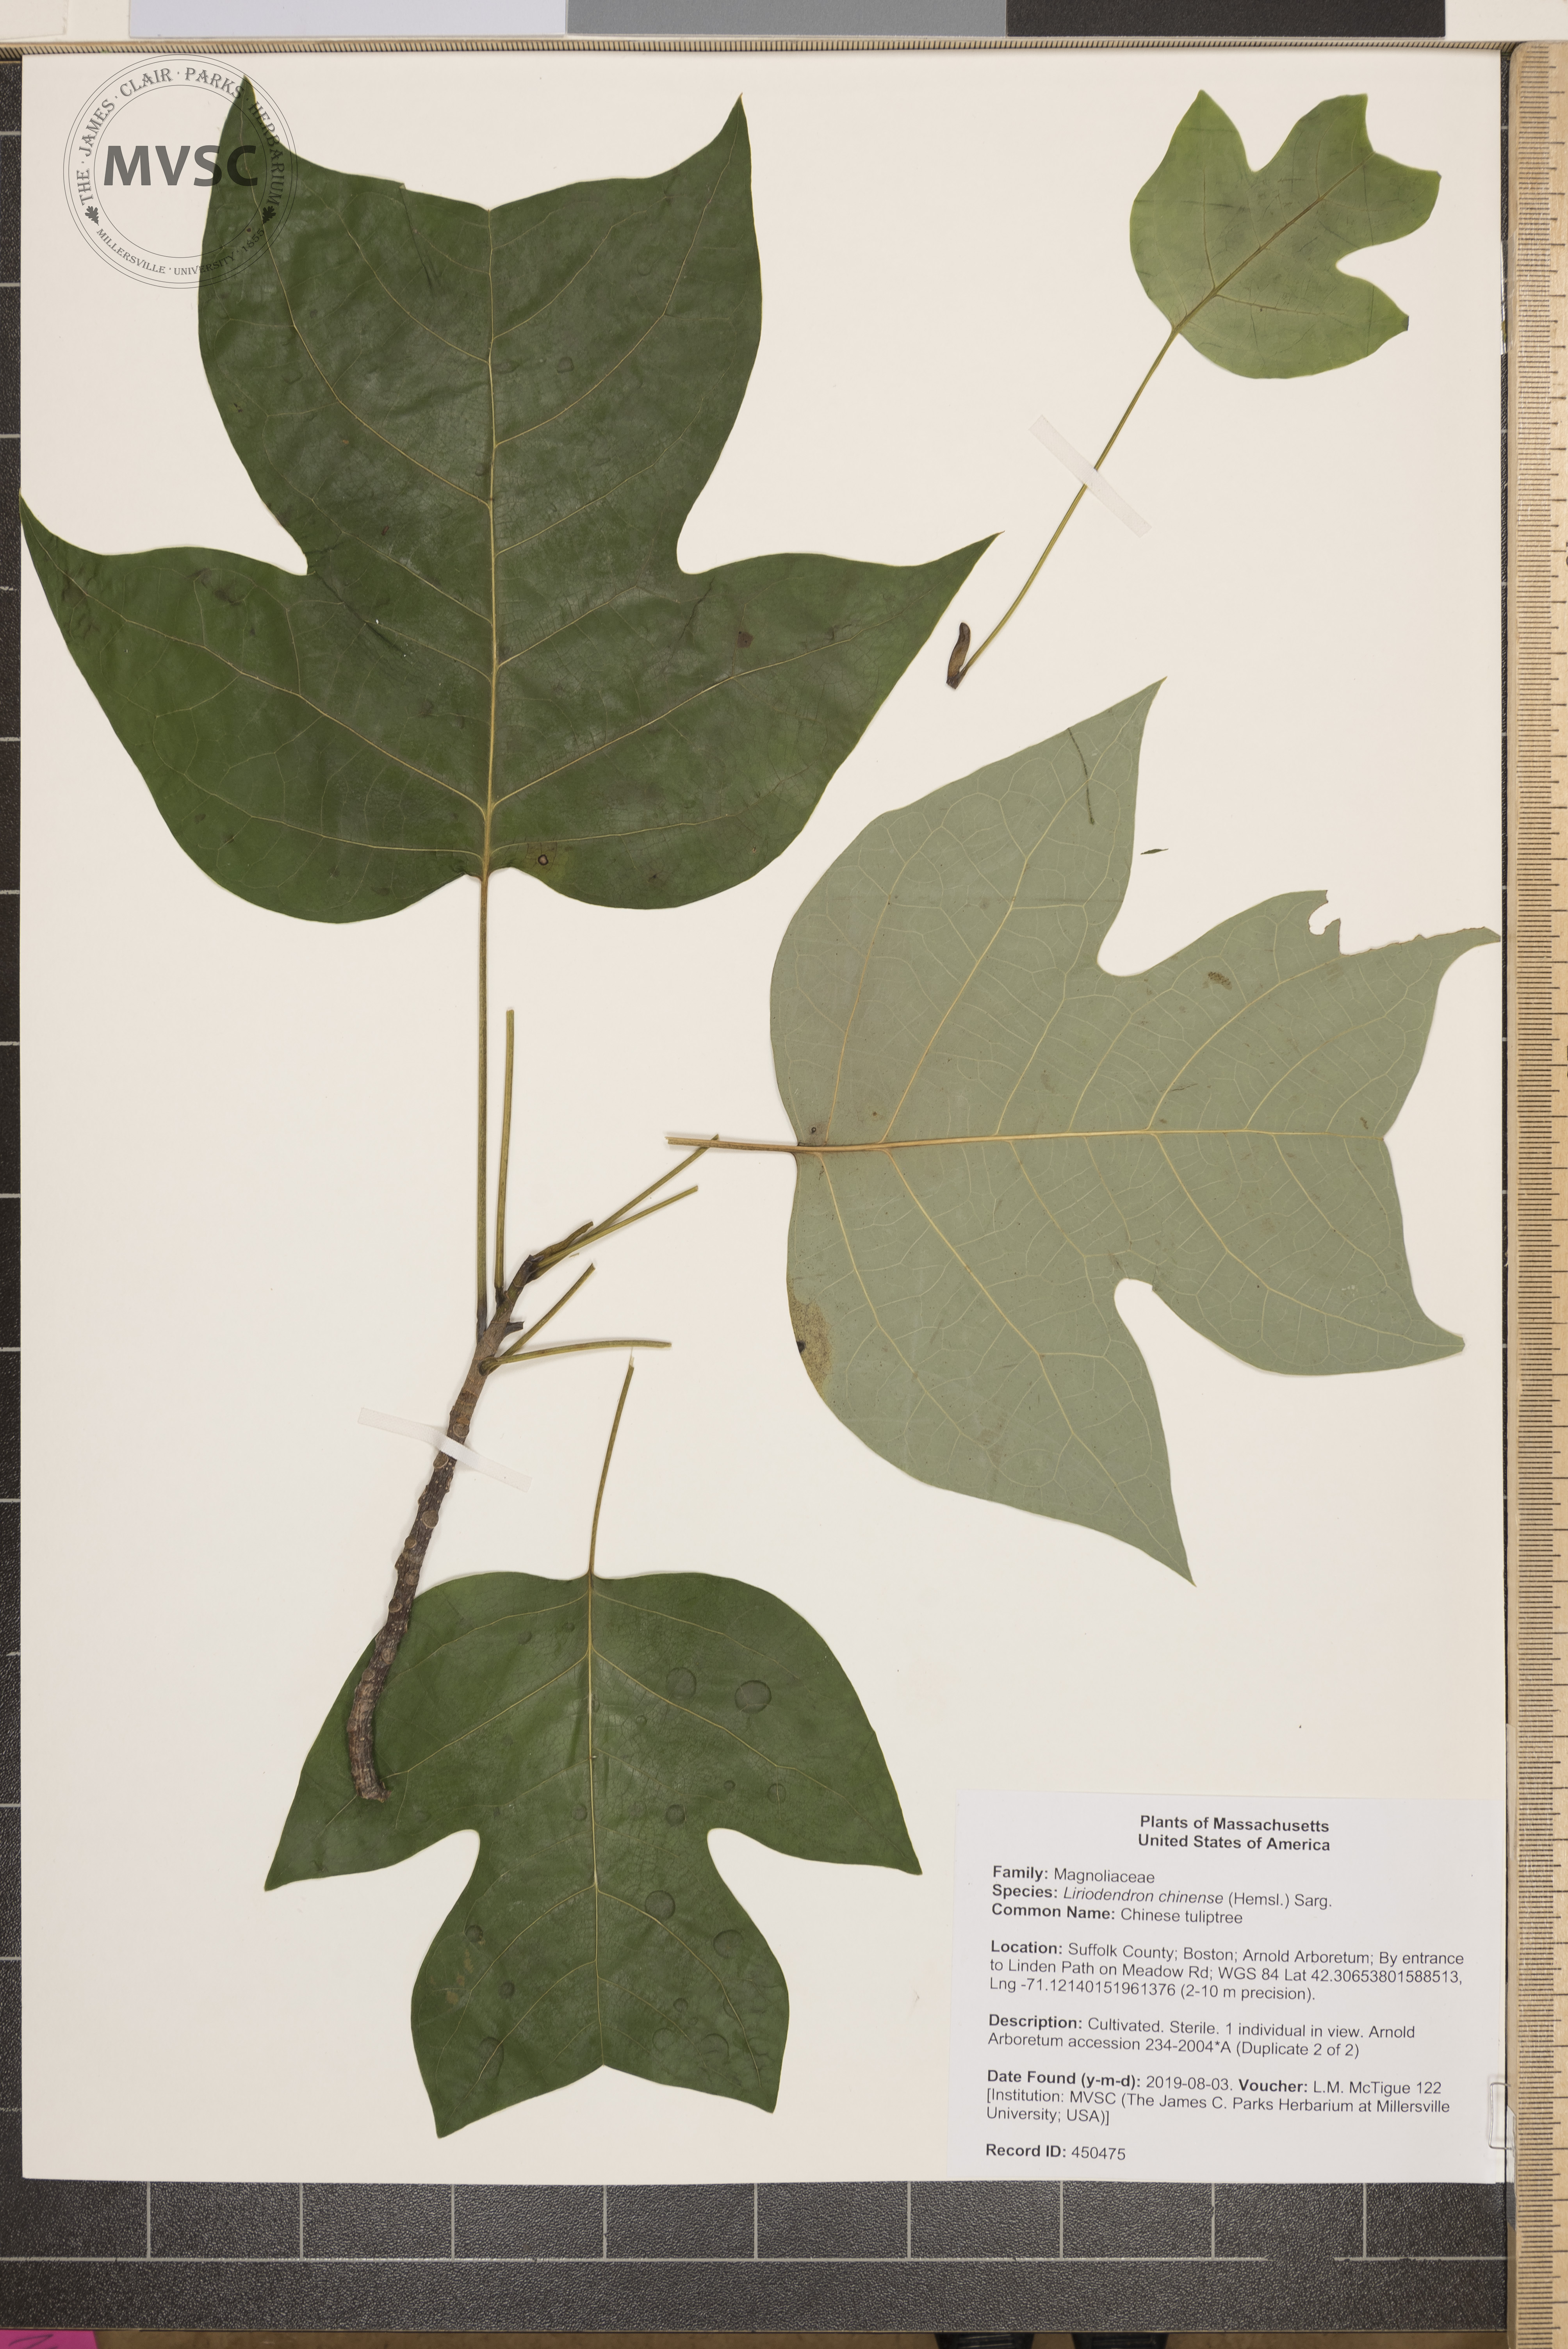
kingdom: Plantae
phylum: Tracheophyta
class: Magnoliopsida
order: Magnoliales
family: Magnoliaceae
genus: Liriodendron
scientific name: Liriodendron chinense
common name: Chinese tuliptree
